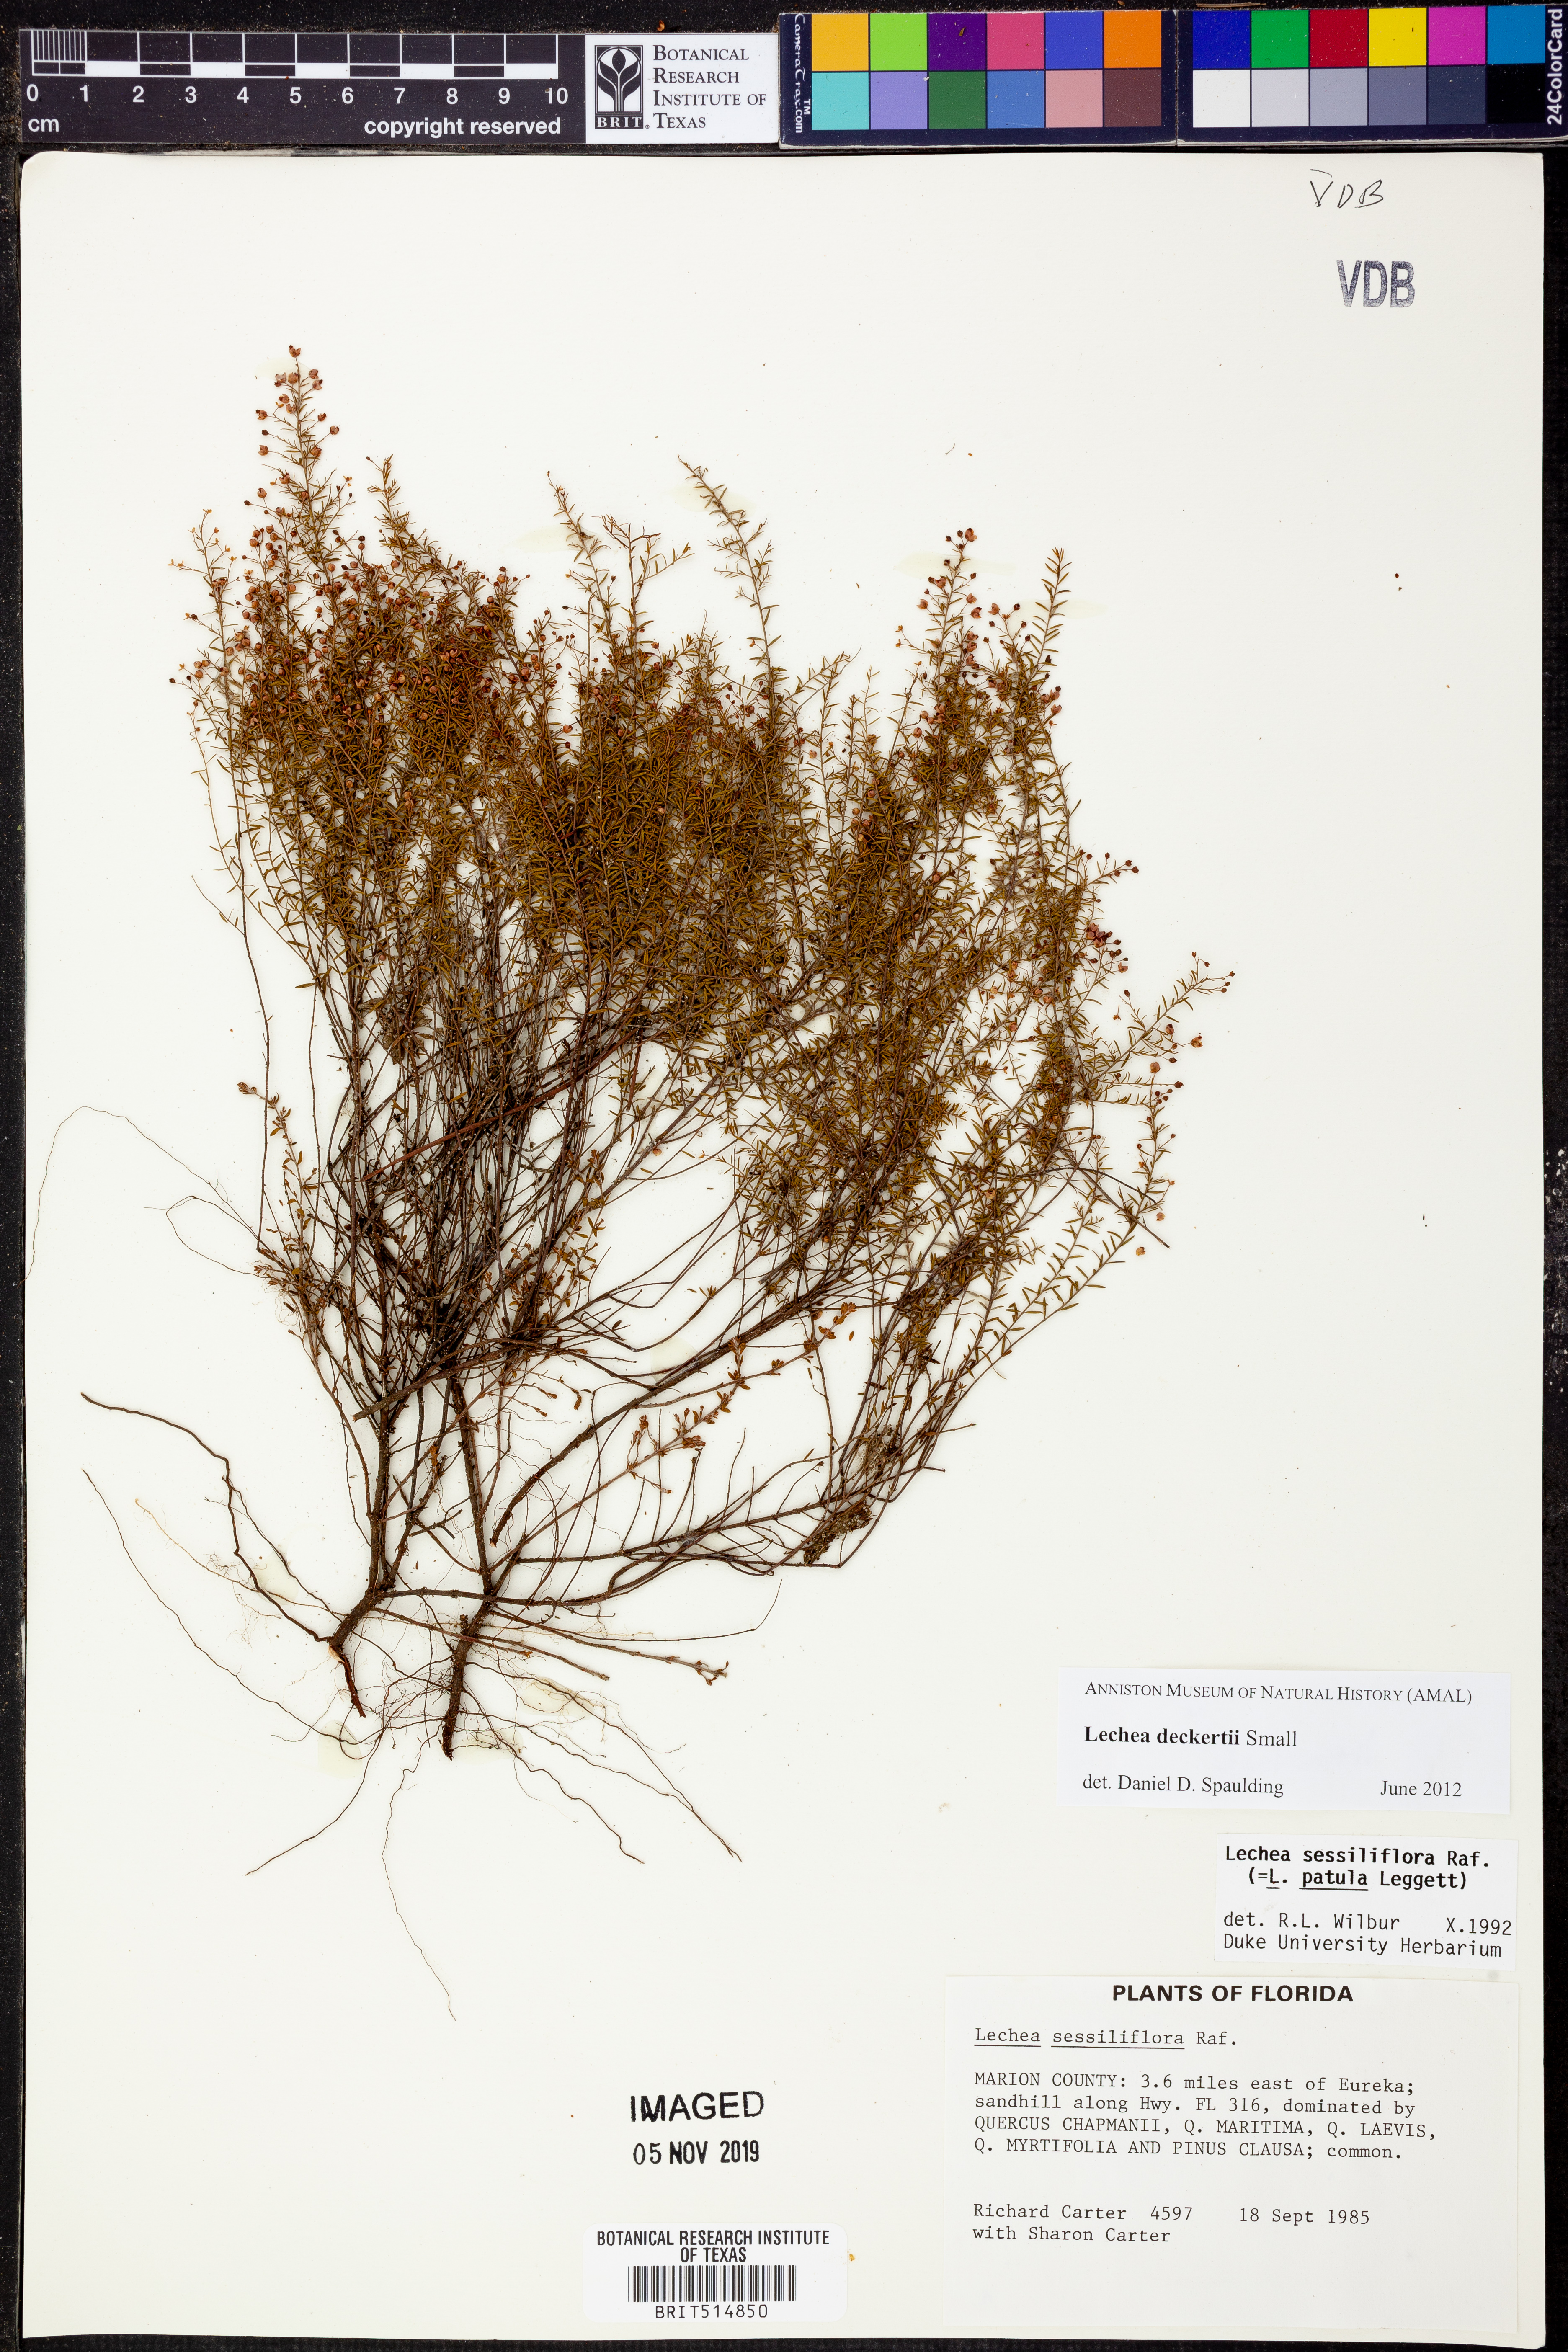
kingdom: Plantae
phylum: Tracheophyta
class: Magnoliopsida
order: Malvales
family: Cistaceae
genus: Lechea
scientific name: Lechea deckertii
